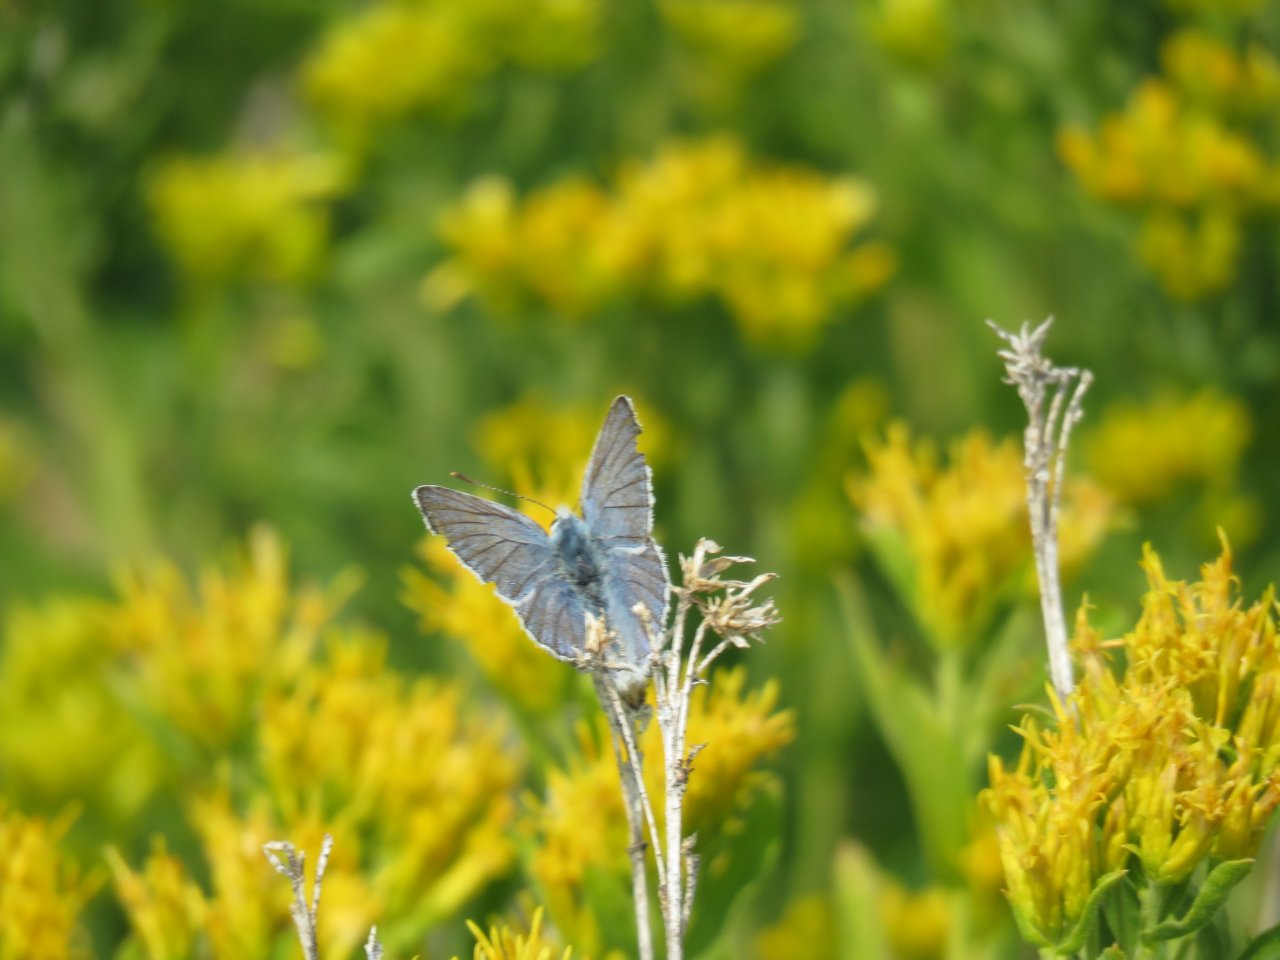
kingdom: Animalia
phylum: Arthropoda
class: Insecta
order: Lepidoptera
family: Lycaenidae
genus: Lycaena
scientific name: Lycaena heteronea
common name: Blue Copper
